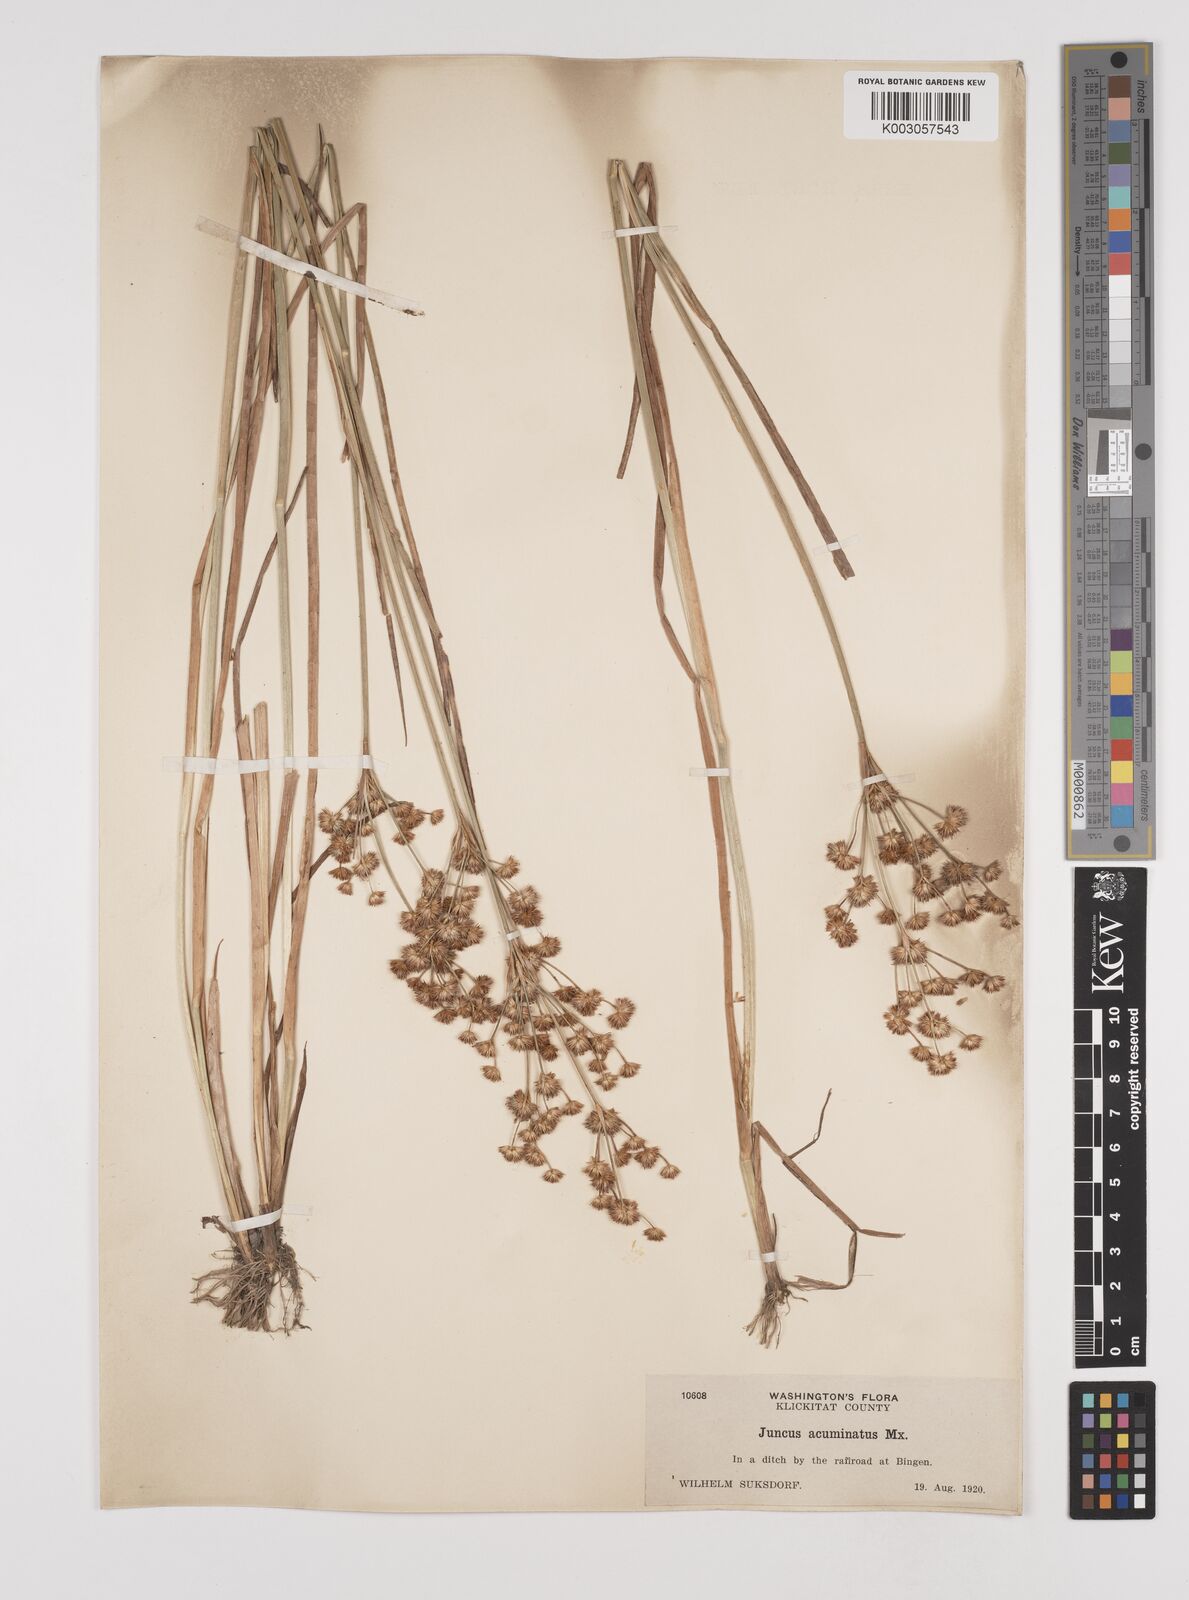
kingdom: Plantae
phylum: Tracheophyta
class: Liliopsida
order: Poales
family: Juncaceae
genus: Juncus
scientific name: Juncus acuminatus
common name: Knotty-leaved rush
